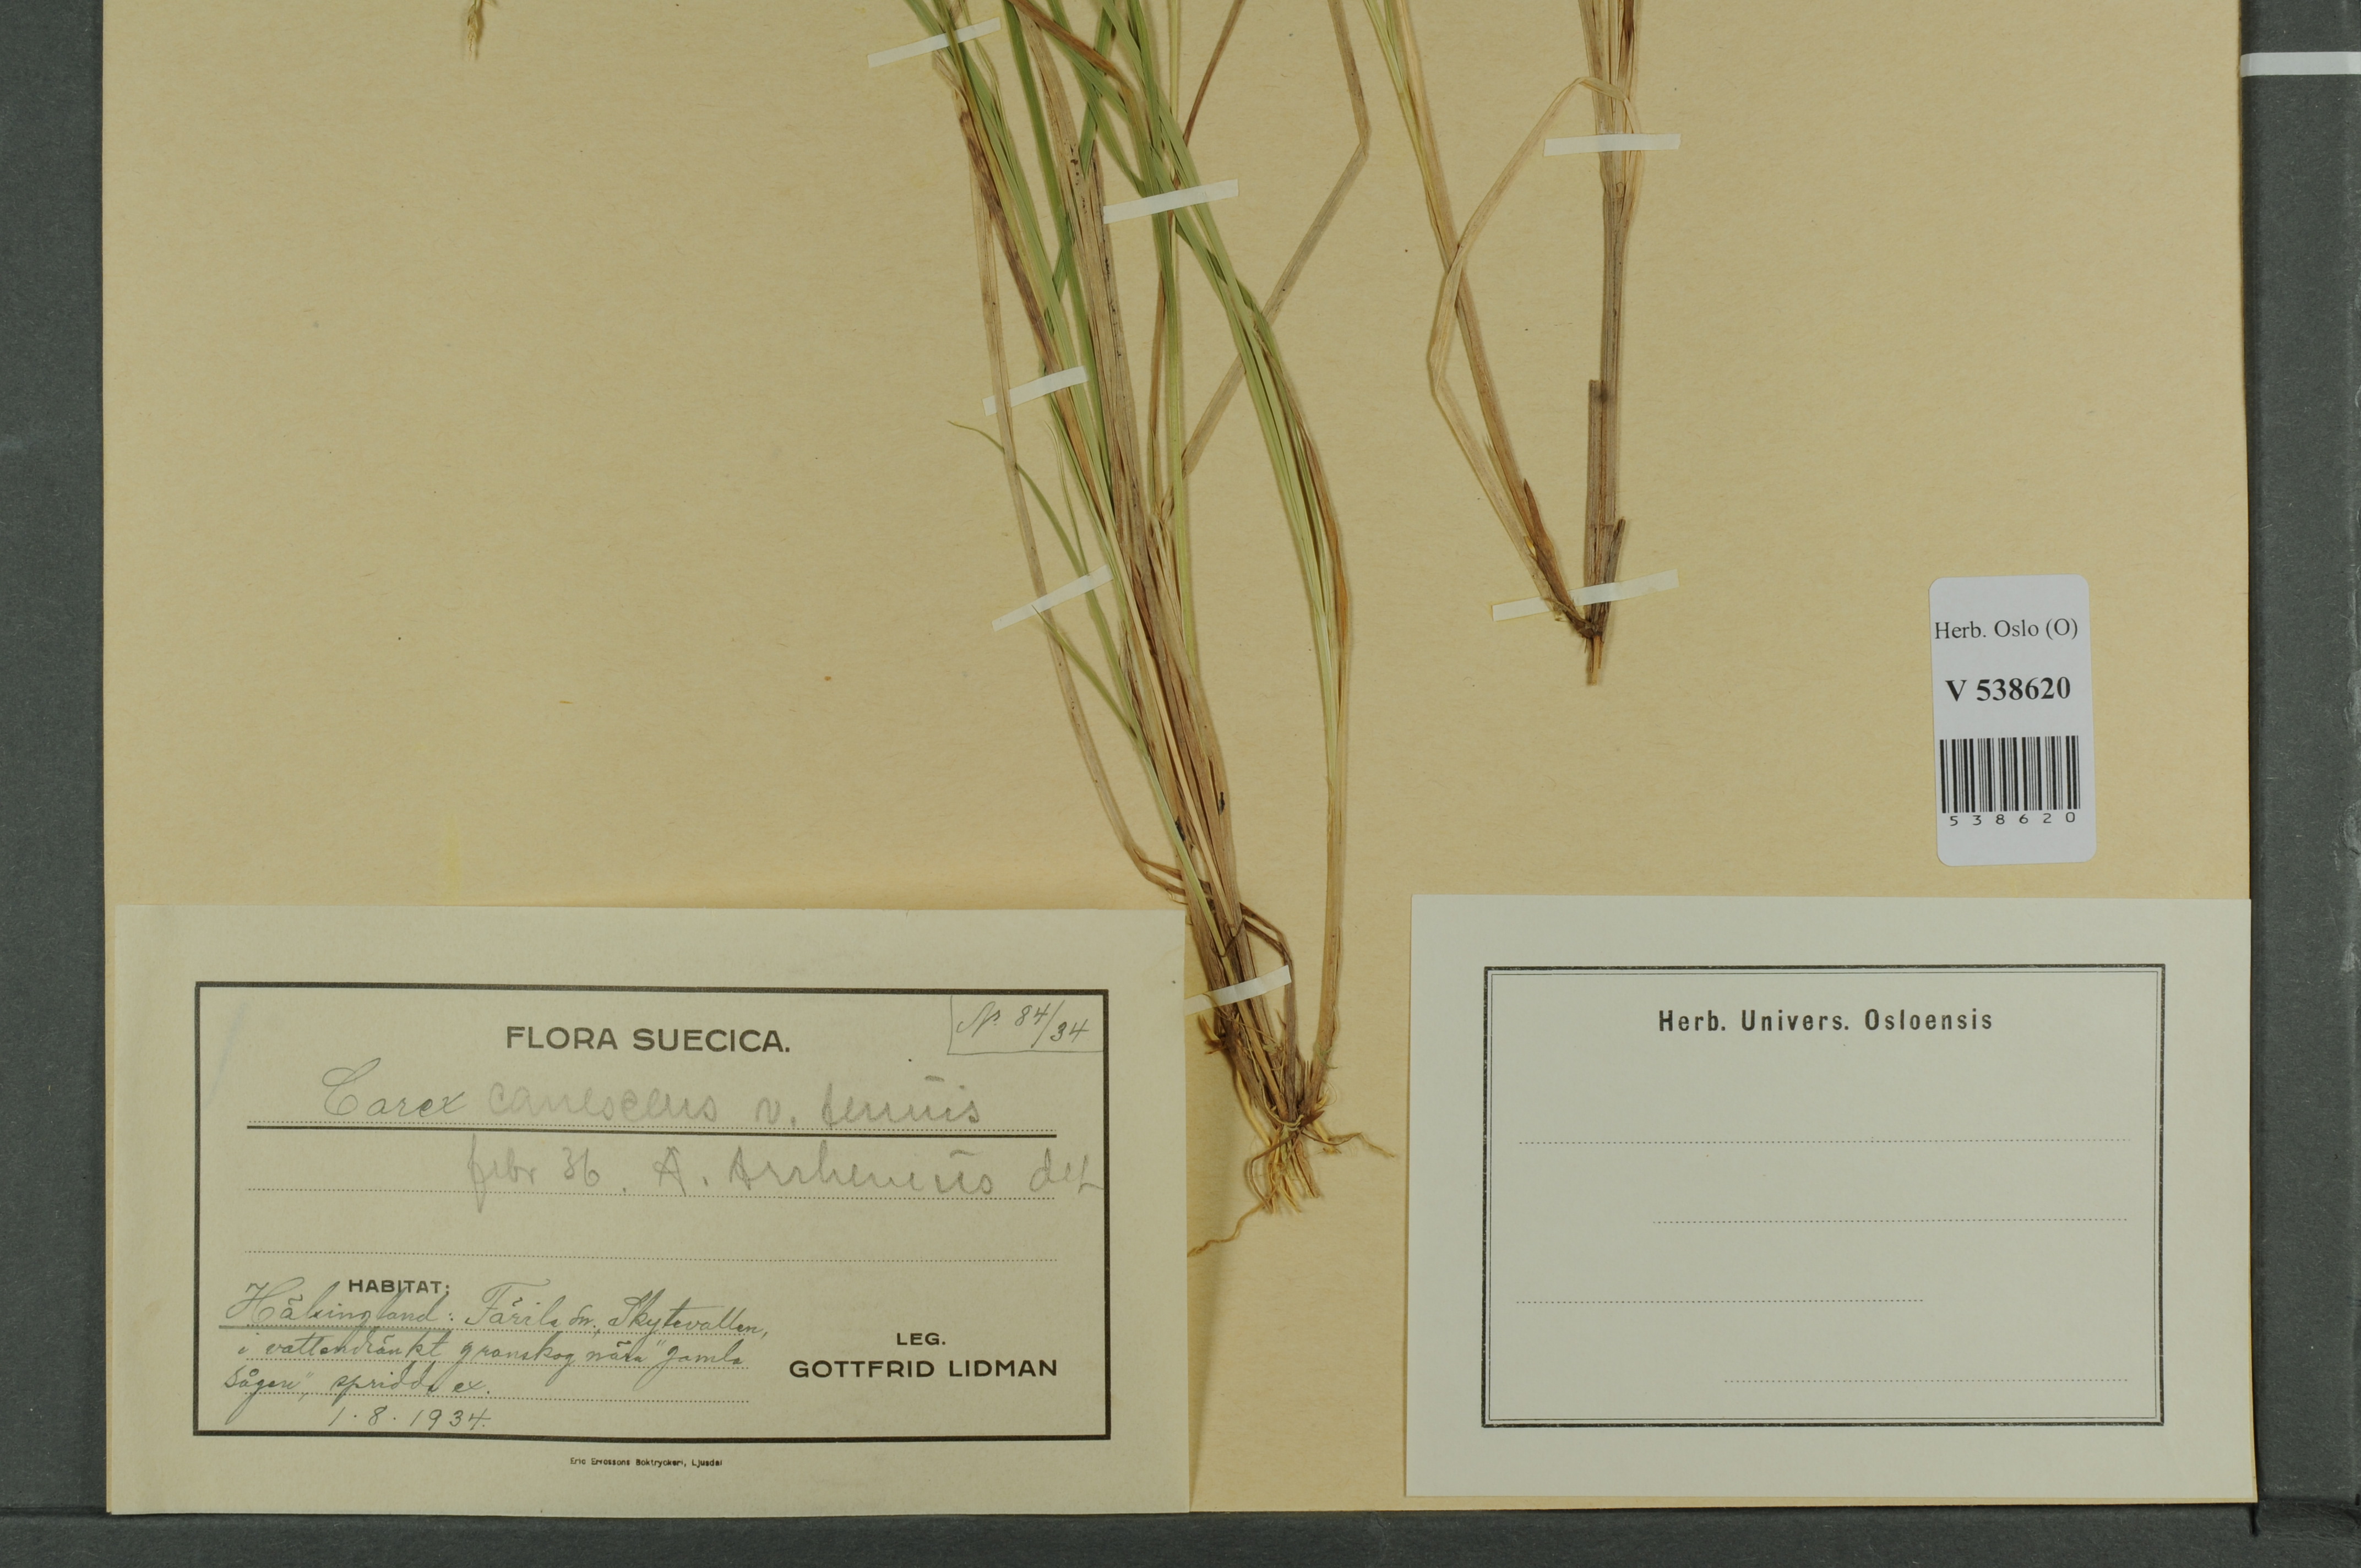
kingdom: Plantae
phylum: Tracheophyta
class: Liliopsida
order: Poales
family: Cyperaceae
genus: Carex
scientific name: Carex canescens
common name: White sedge
